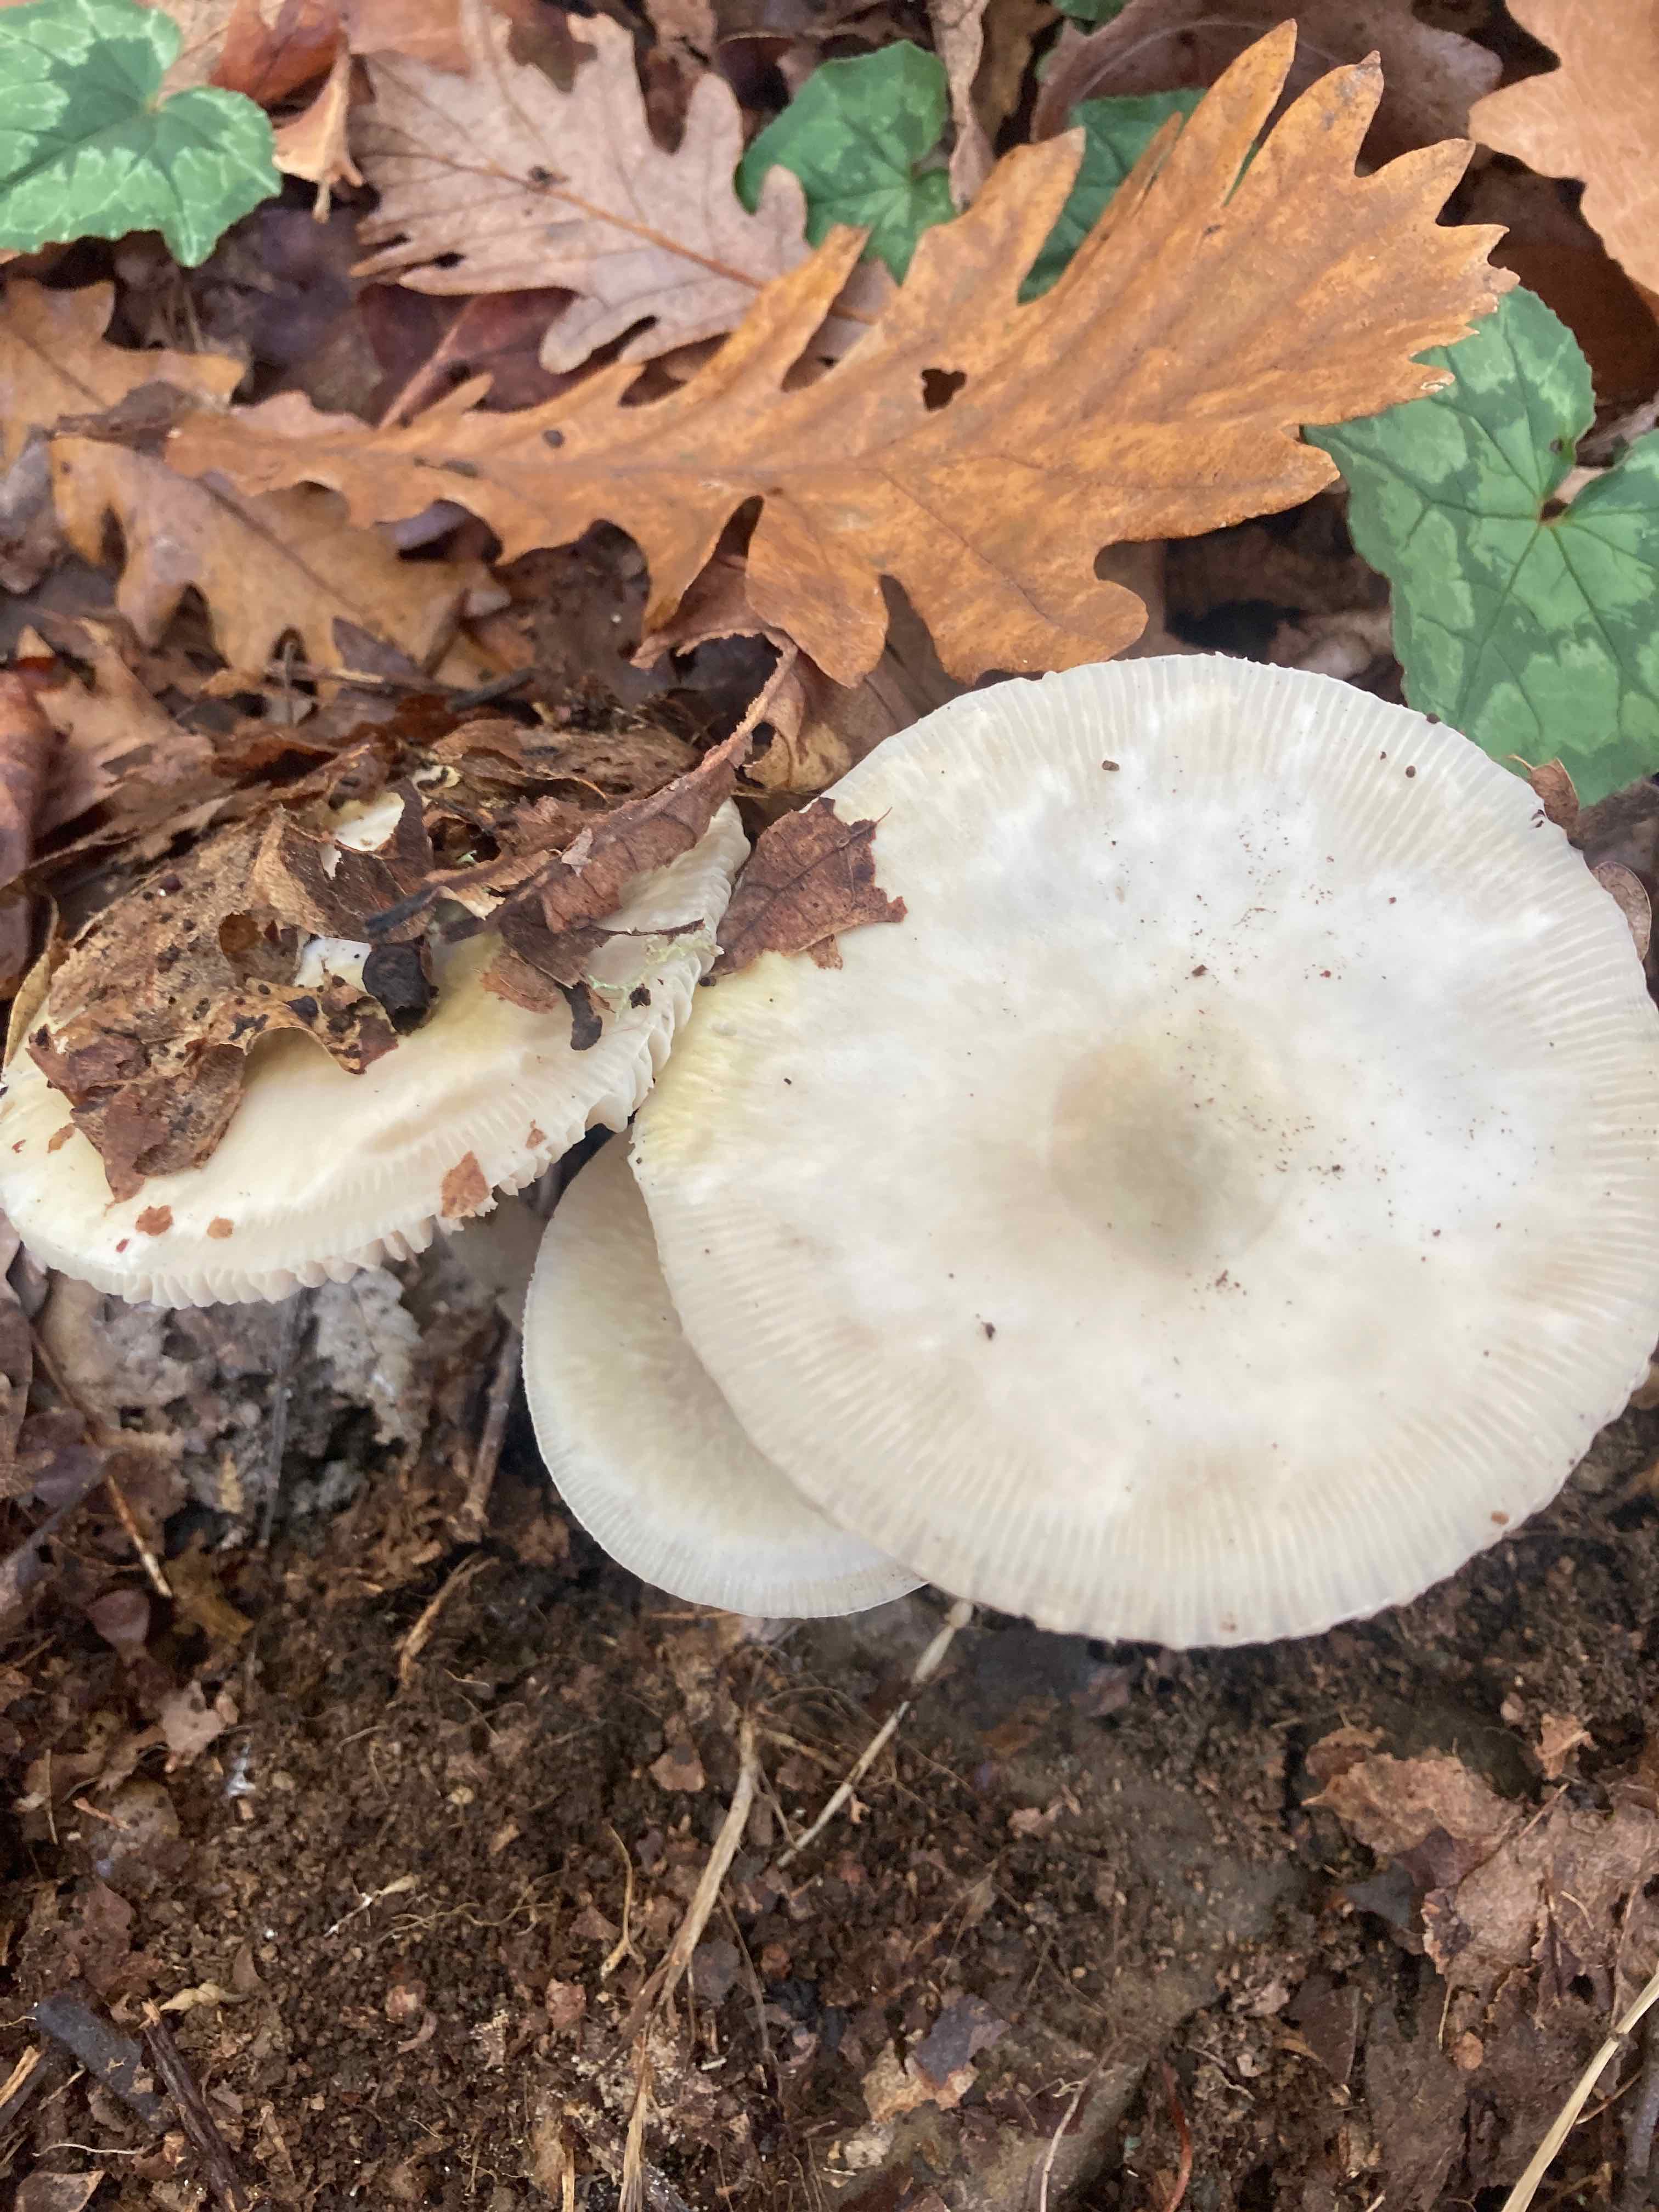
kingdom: Fungi
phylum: Basidiomycota
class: Agaricomycetes
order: Agaricales
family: Amanitaceae
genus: Amanita
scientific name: Amanita phalloides
